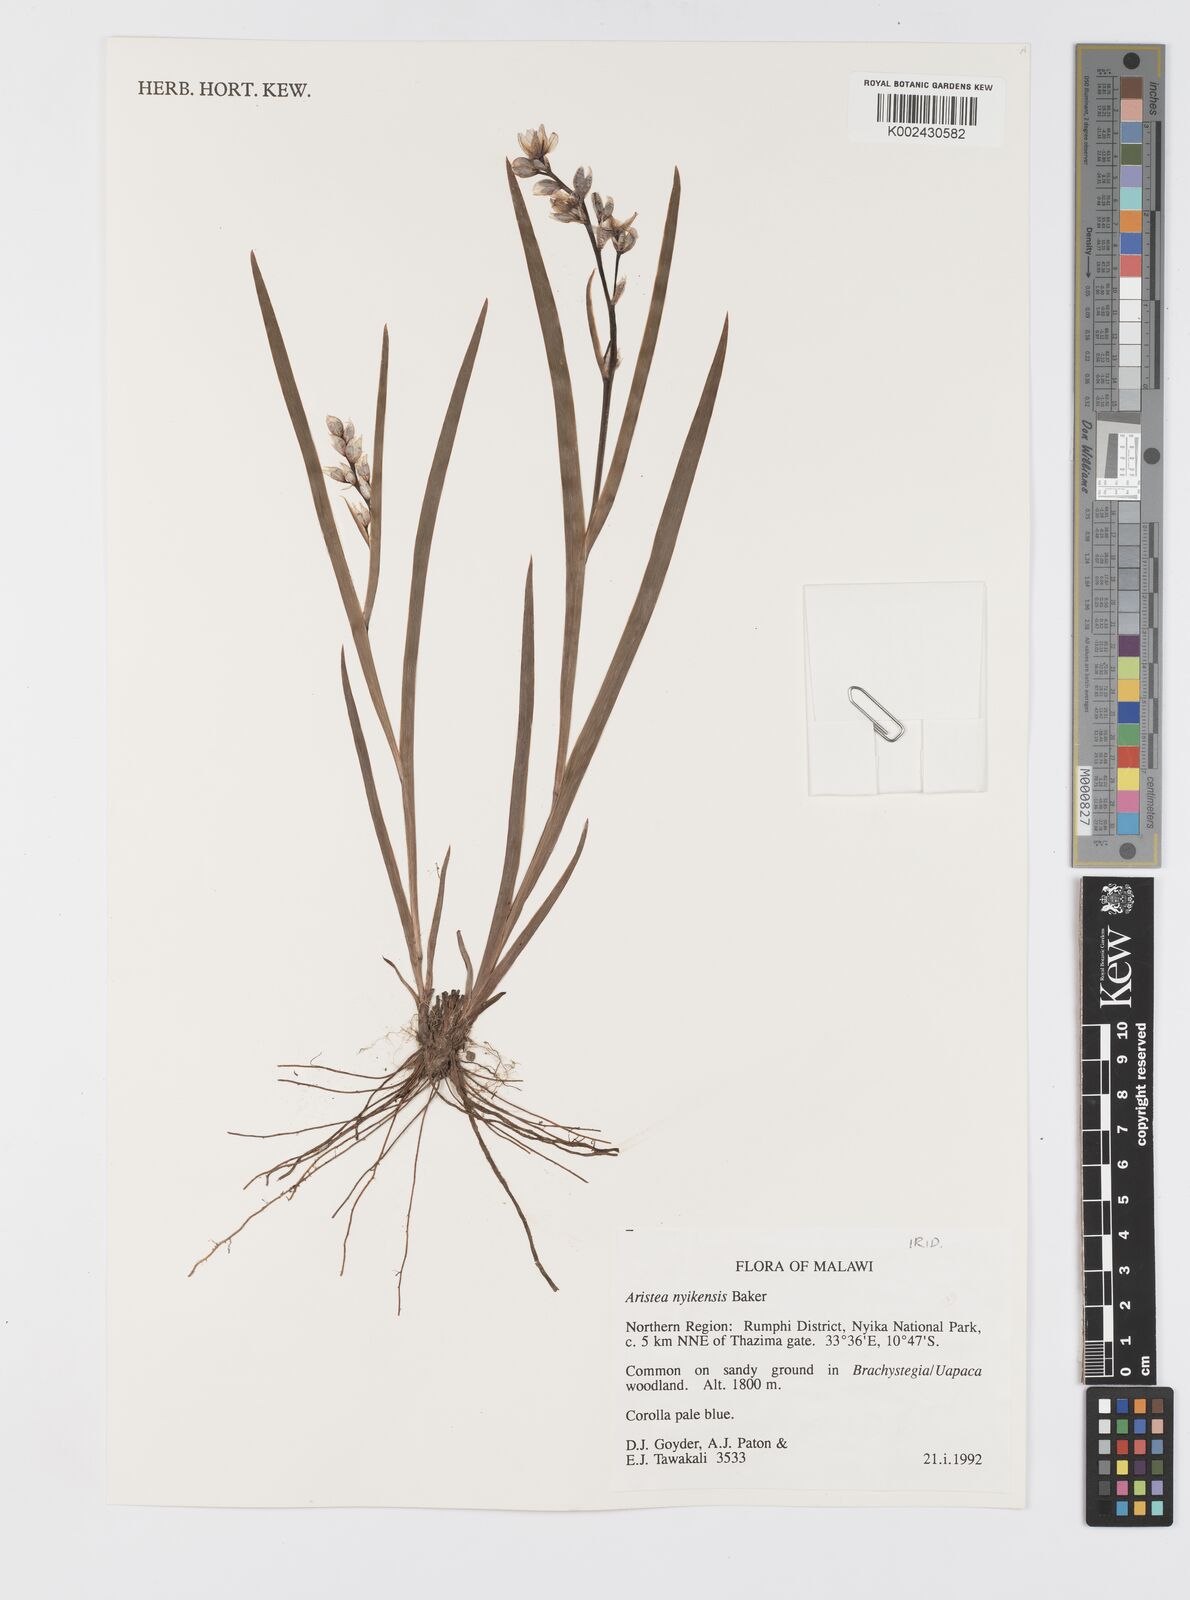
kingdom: Plantae
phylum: Tracheophyta
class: Liliopsida
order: Asparagales
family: Iridaceae
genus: Aristea
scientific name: Aristea nyikensis
